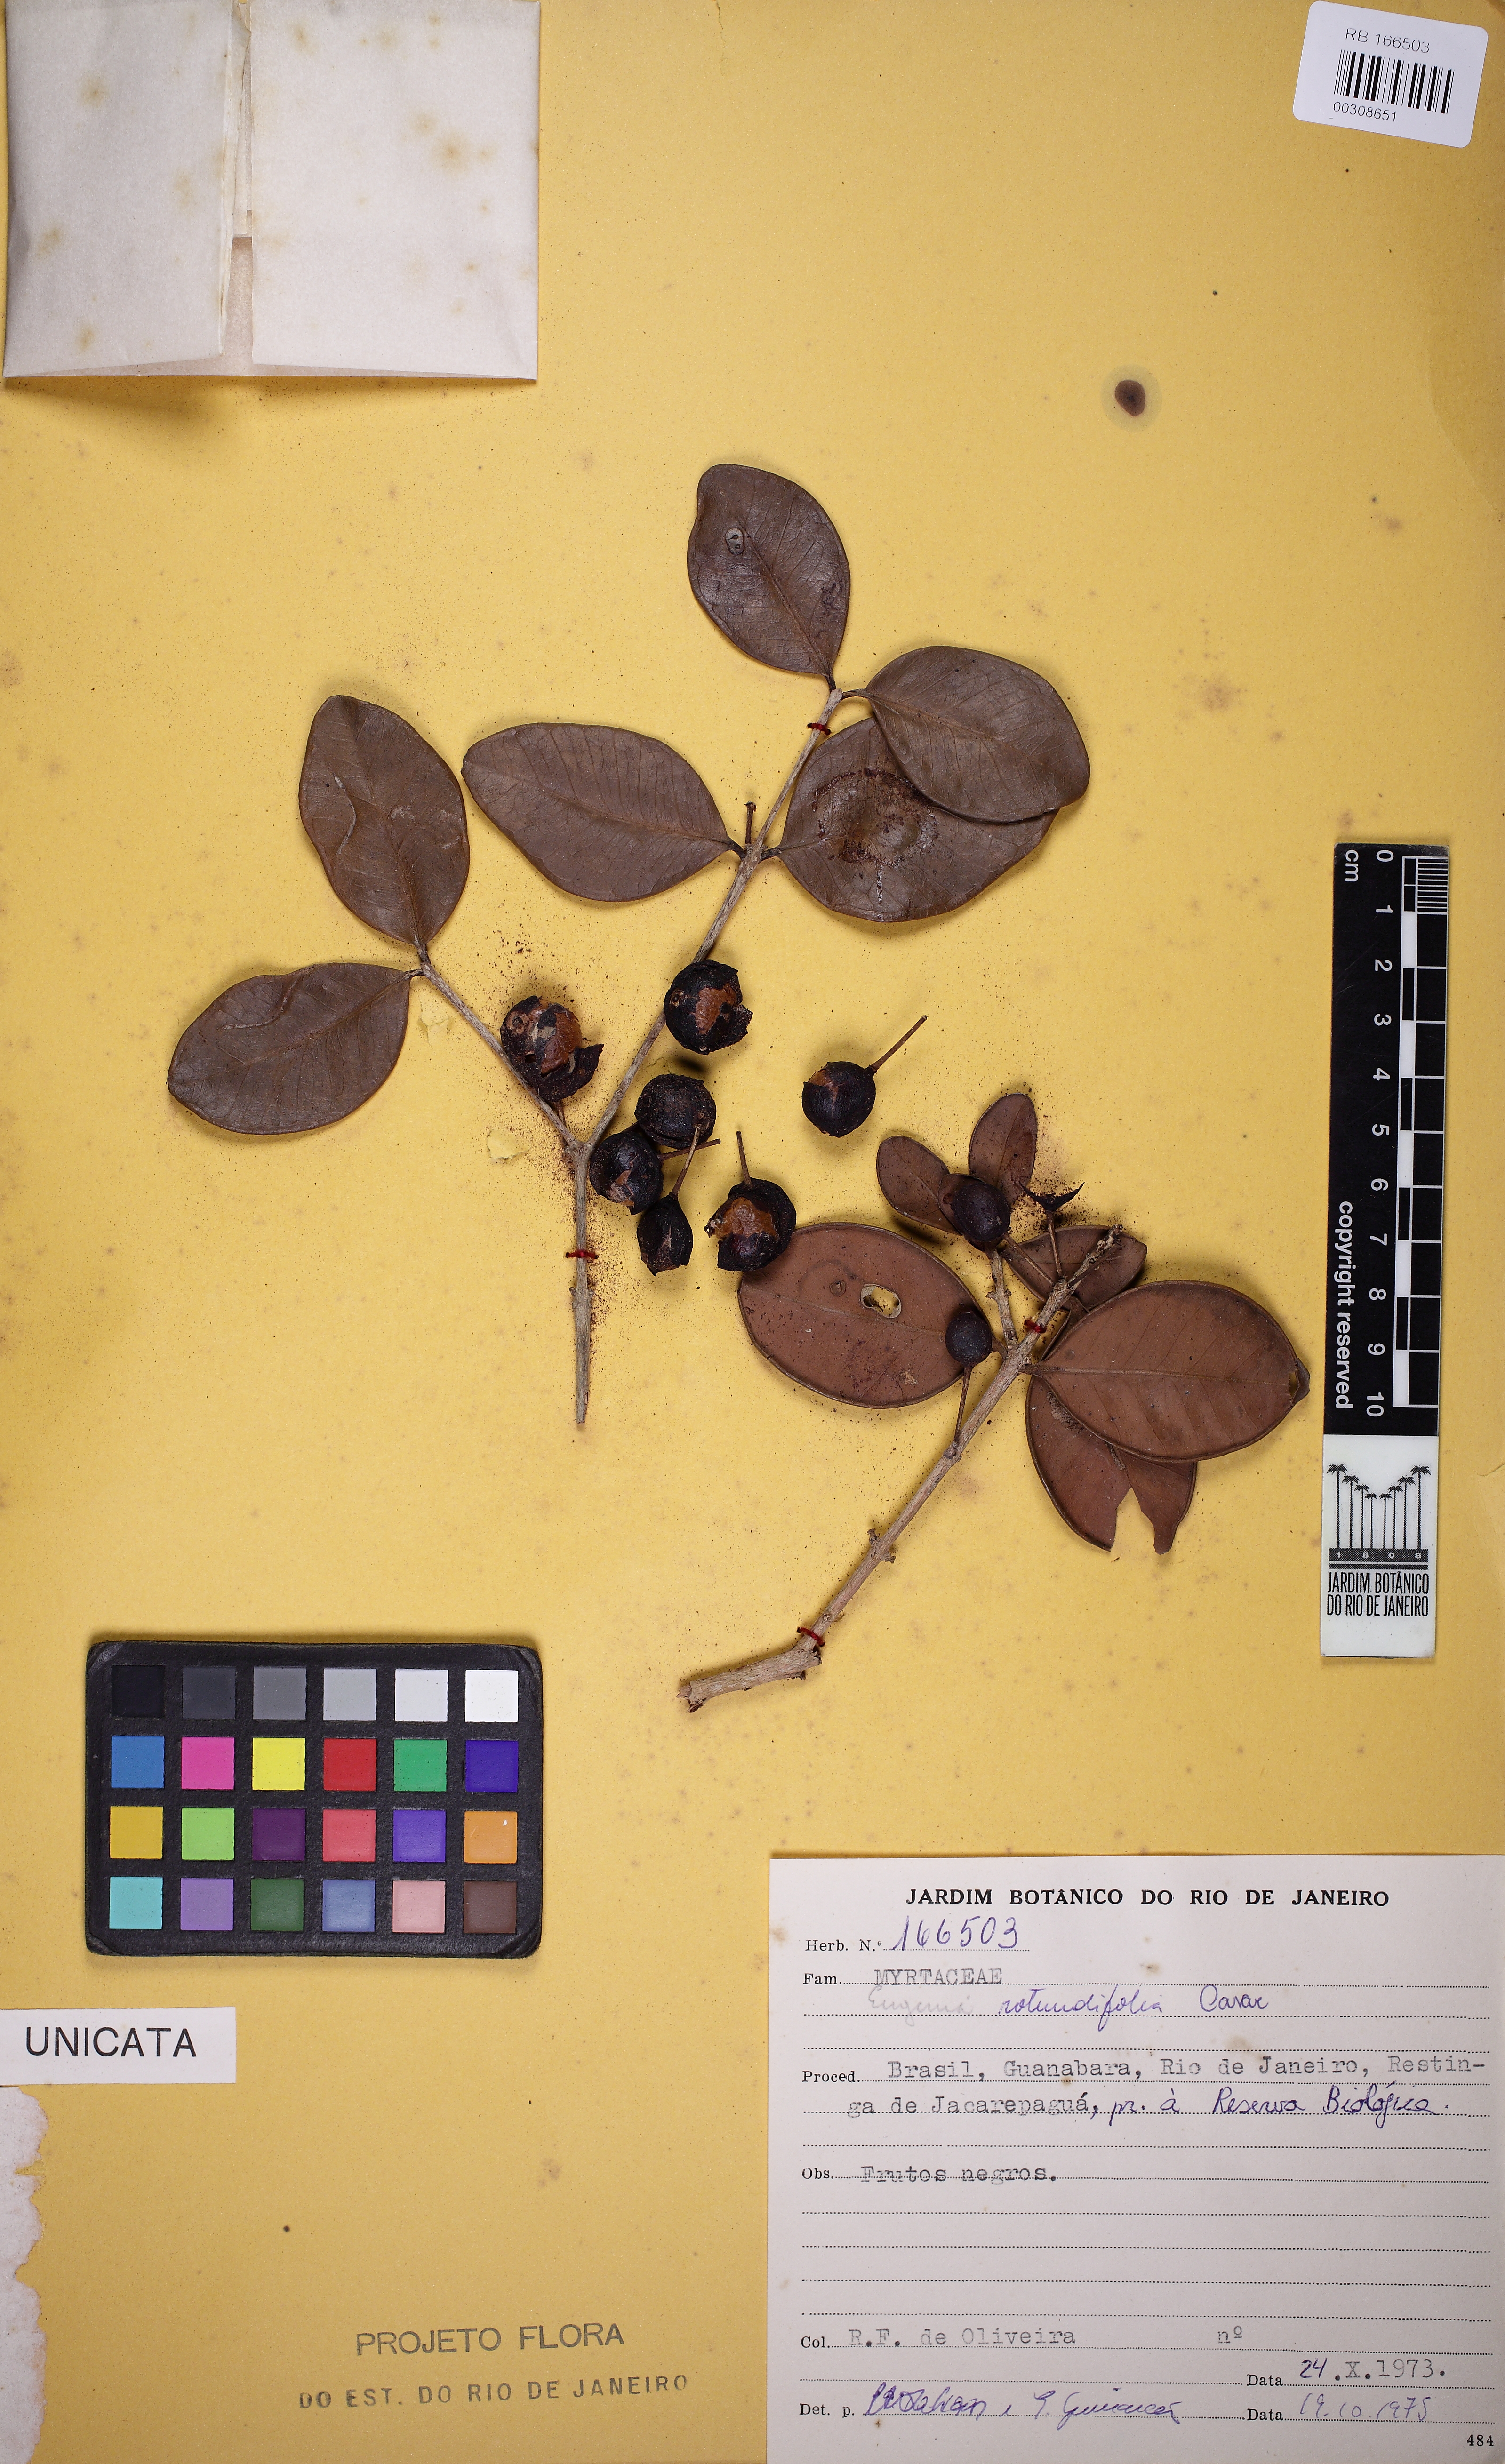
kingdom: Plantae
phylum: Tracheophyta
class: Magnoliopsida
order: Myrtales
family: Myrtaceae
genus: Syzygium
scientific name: Syzygium rotundifolium
